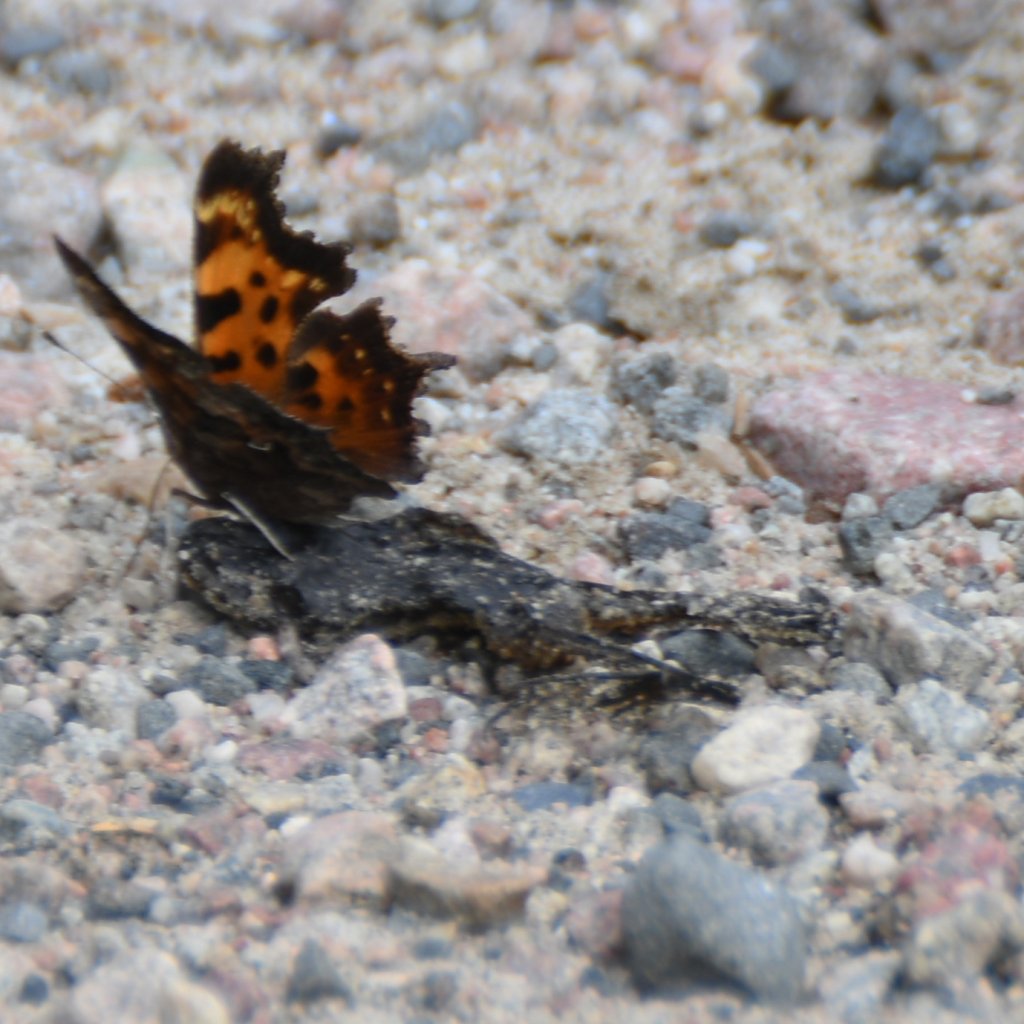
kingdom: Animalia
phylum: Arthropoda
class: Insecta
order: Lepidoptera
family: Nymphalidae
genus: Polygonia
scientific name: Polygonia faunus
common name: Green Comma
